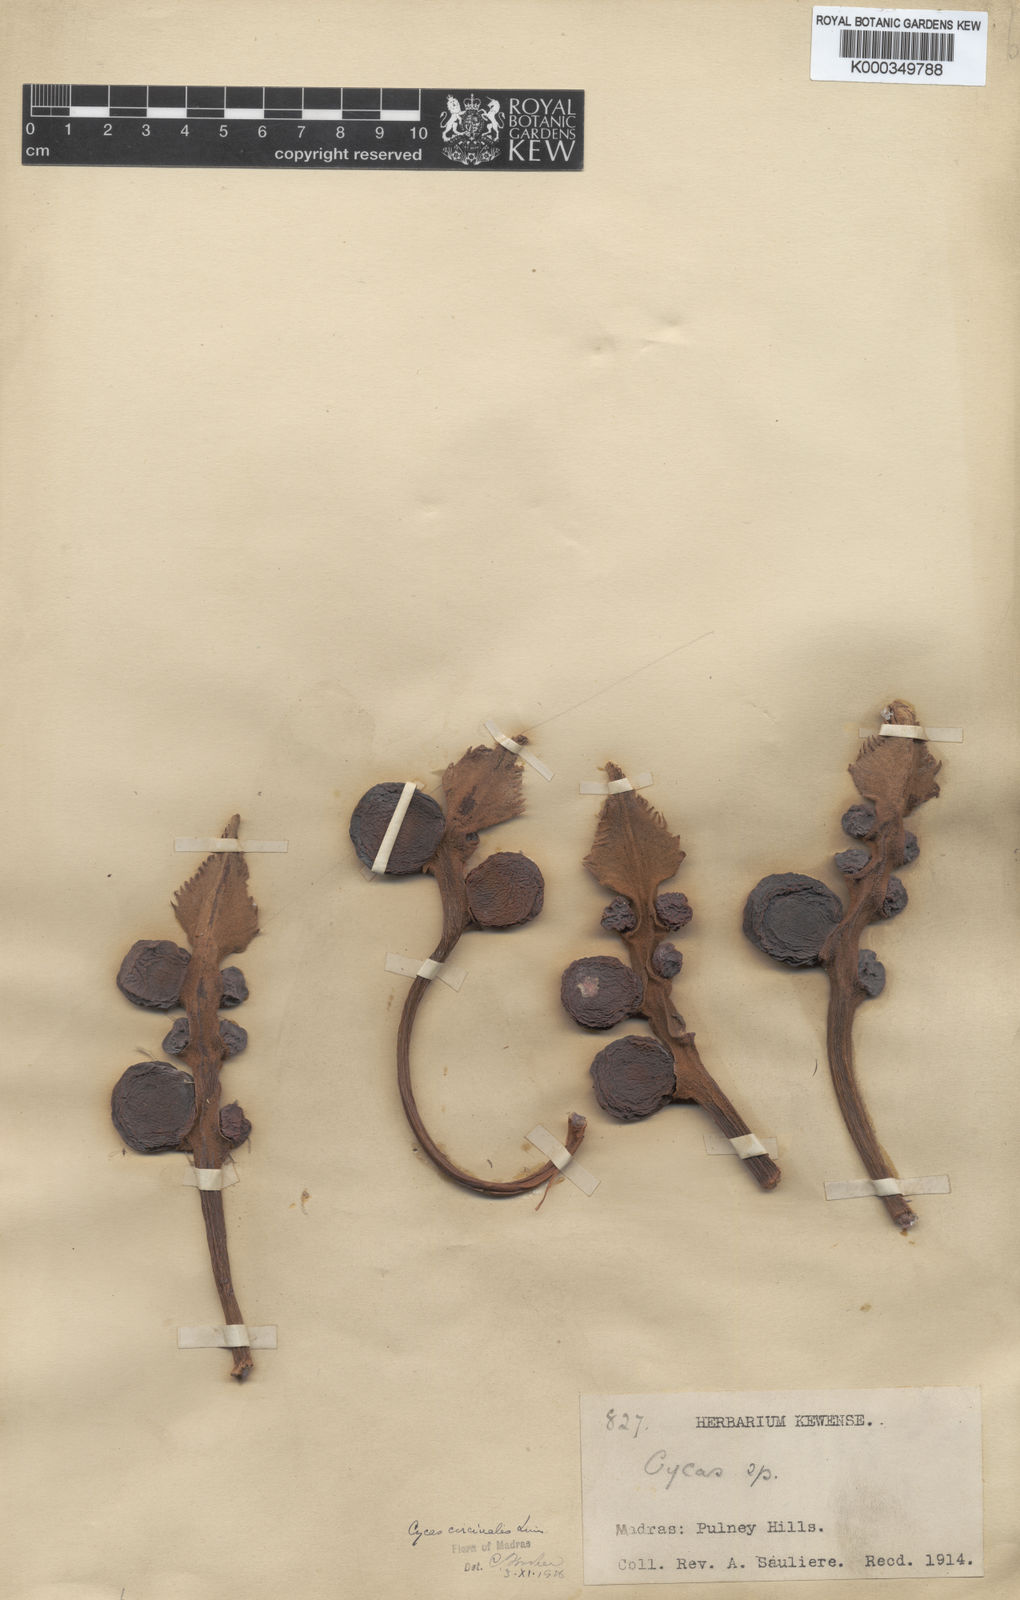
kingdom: Plantae
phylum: Tracheophyta
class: Cycadopsida
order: Cycadales
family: Cycadaceae
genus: Cycas
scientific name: Cycas circinalis
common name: Queen sago
